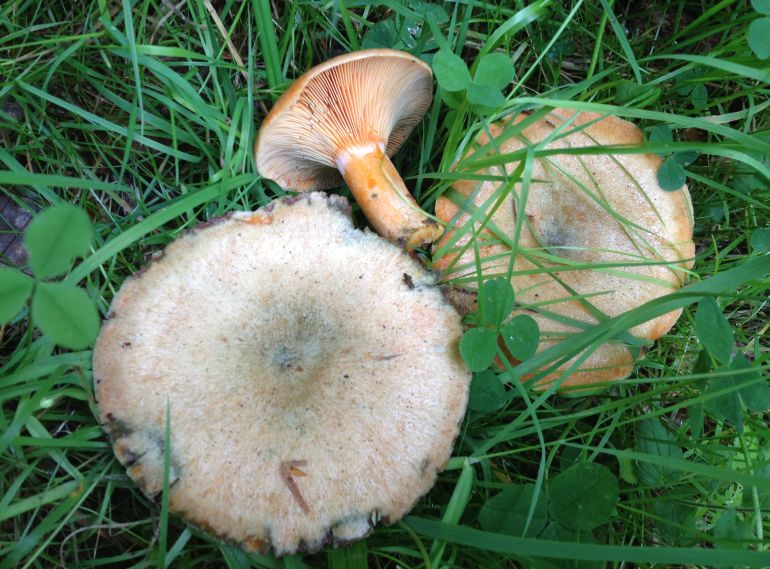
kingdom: Fungi
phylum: Basidiomycota
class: Agaricomycetes
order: Russulales
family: Russulaceae
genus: Lactarius
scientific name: Lactarius deterrimus
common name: gran-mælkehat
